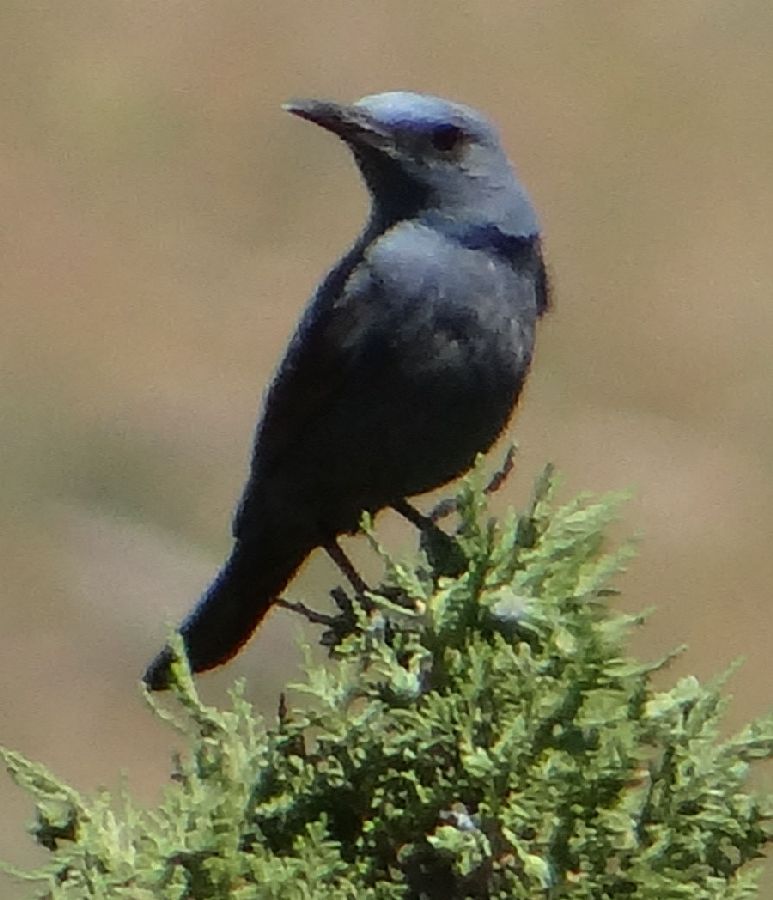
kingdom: Animalia
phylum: Chordata
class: Aves
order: Passeriformes
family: Muscicapidae
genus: Monticola
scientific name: Monticola solitarius
